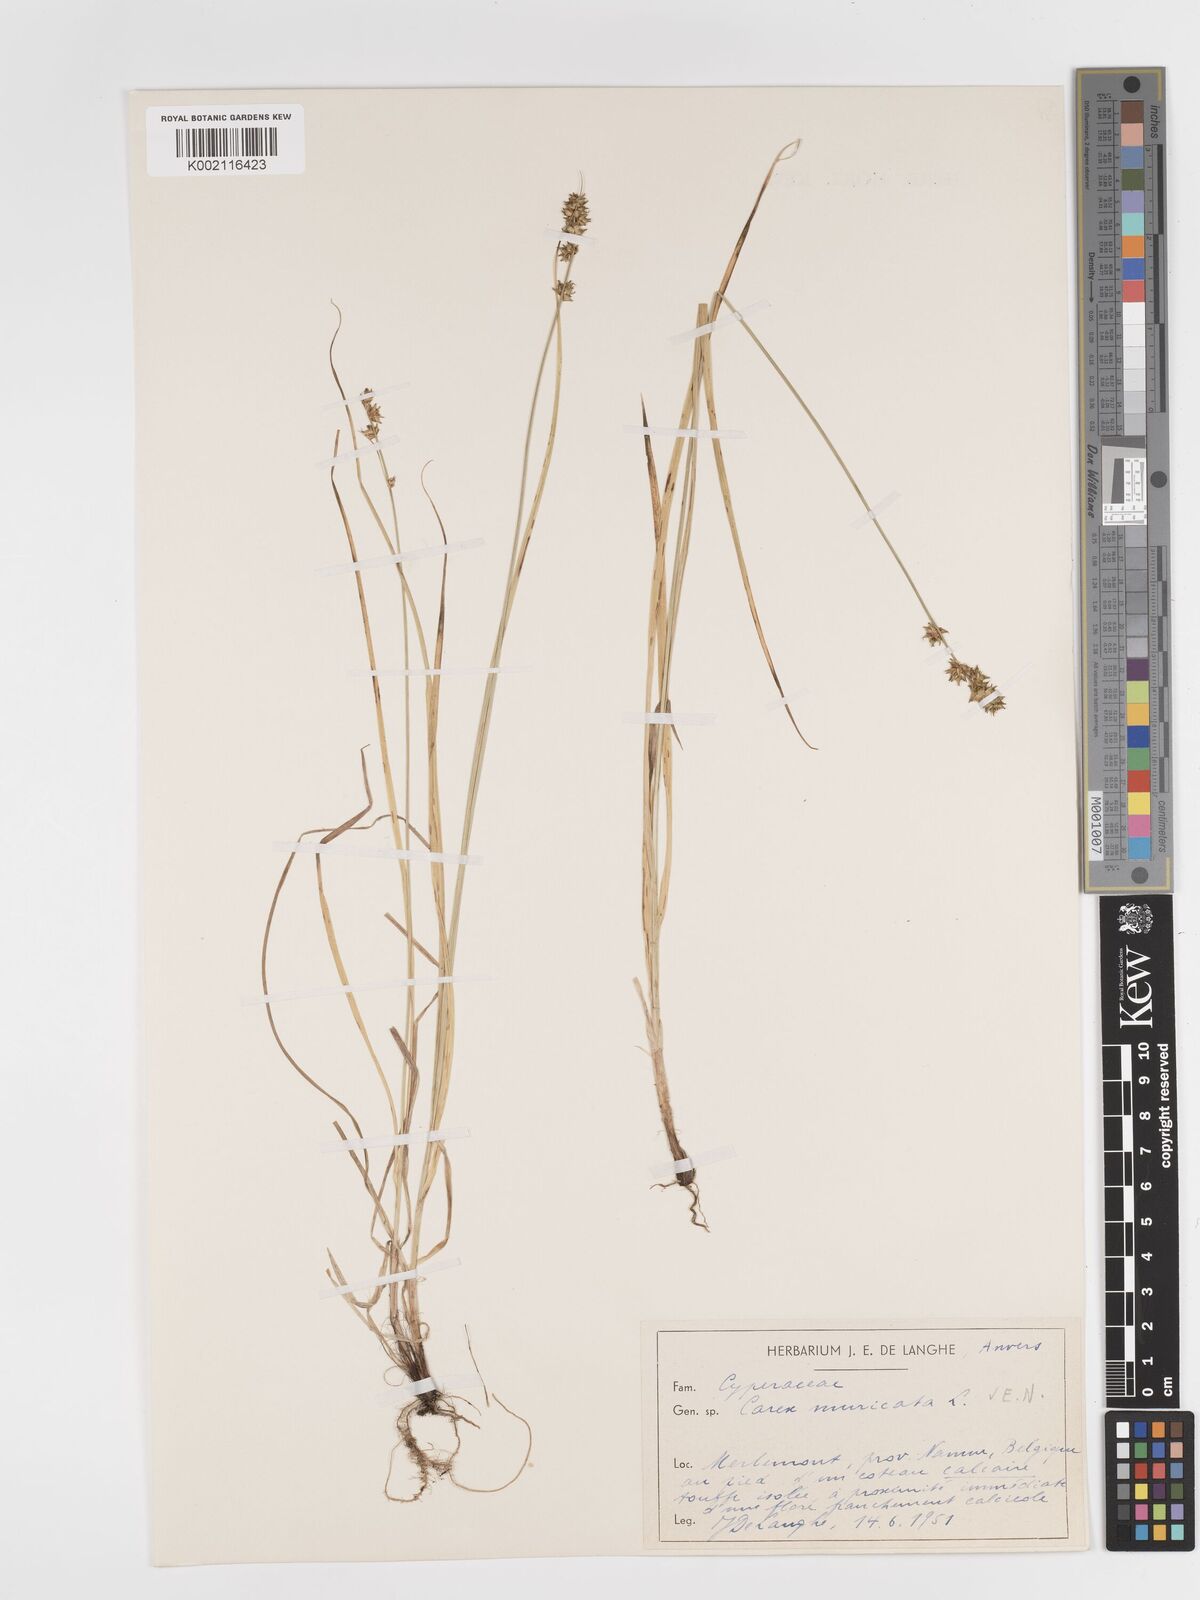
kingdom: Plantae
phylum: Tracheophyta
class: Liliopsida
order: Poales
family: Cyperaceae
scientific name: Cyperaceae
